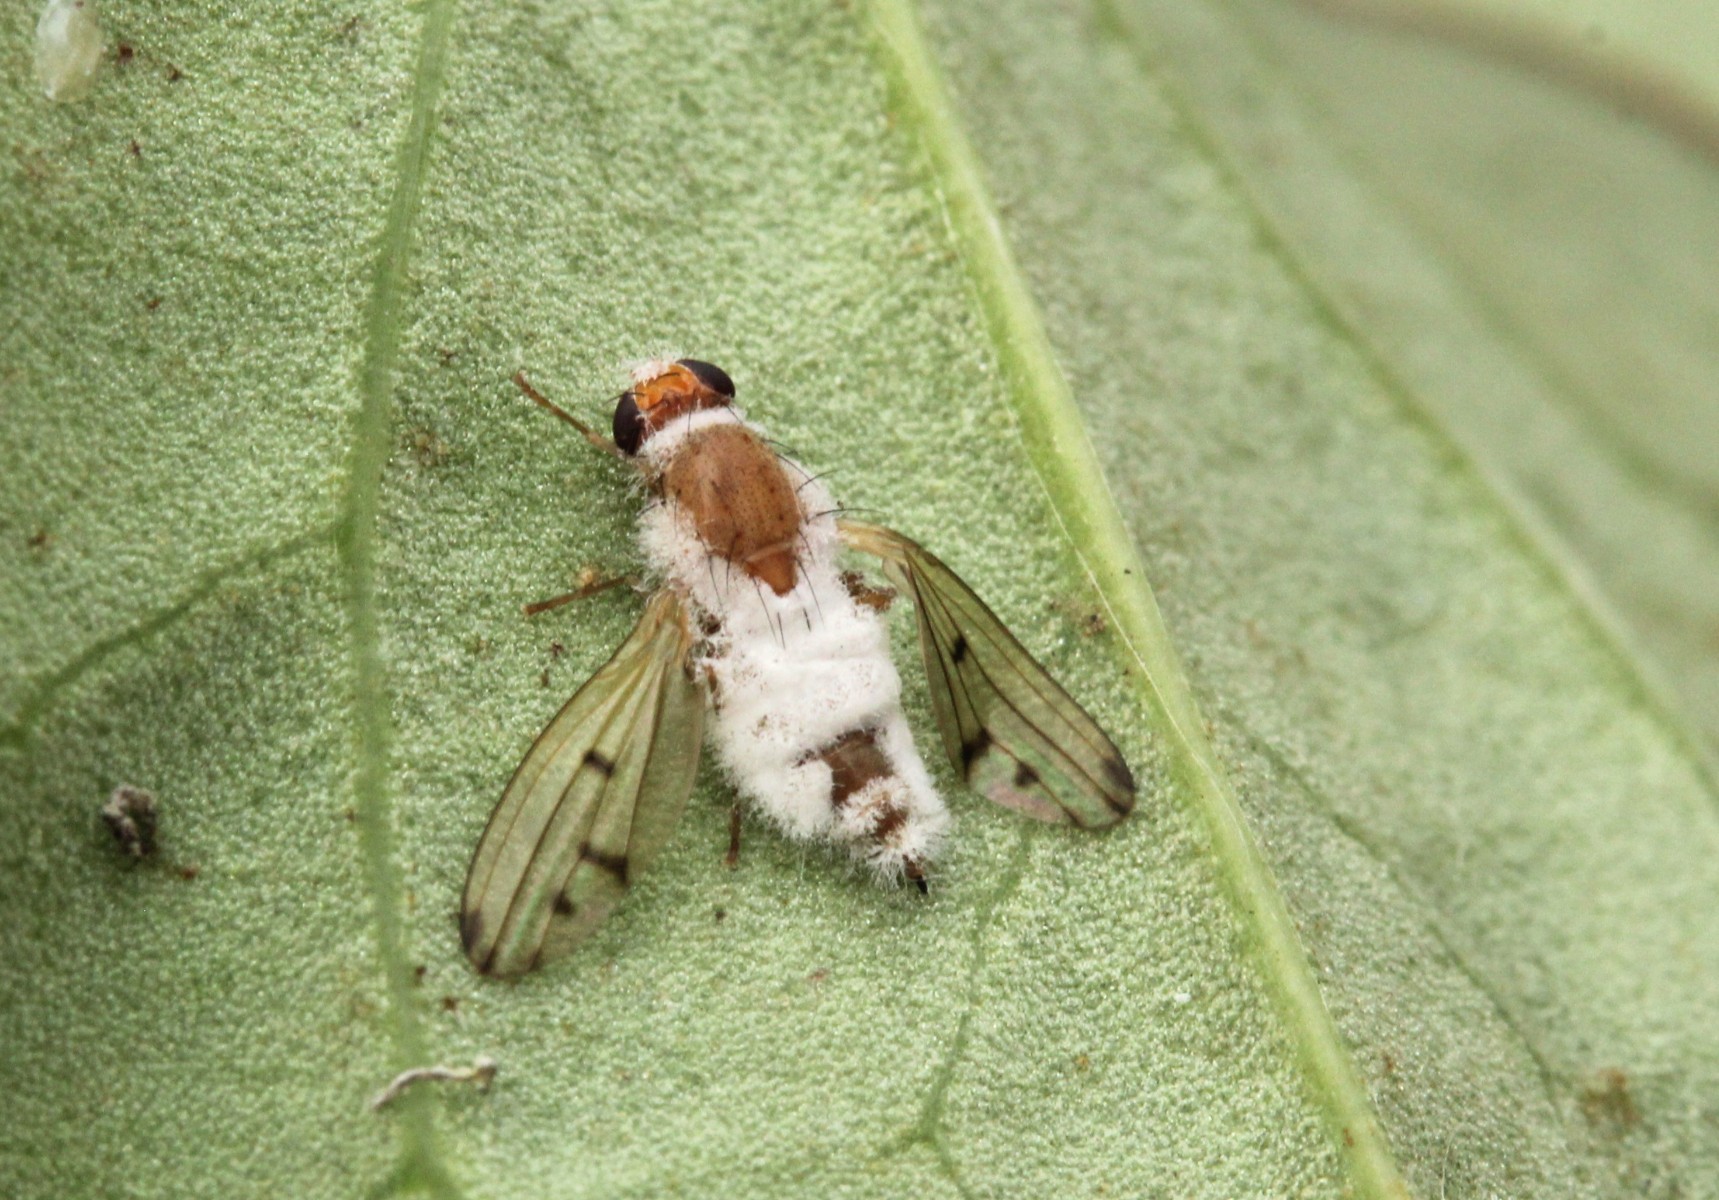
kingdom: Fungi
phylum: Entomophthoromycota
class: Entomophthoromycetes
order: Entomophthorales
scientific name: Entomophthorales
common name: flueskimmelordenen
